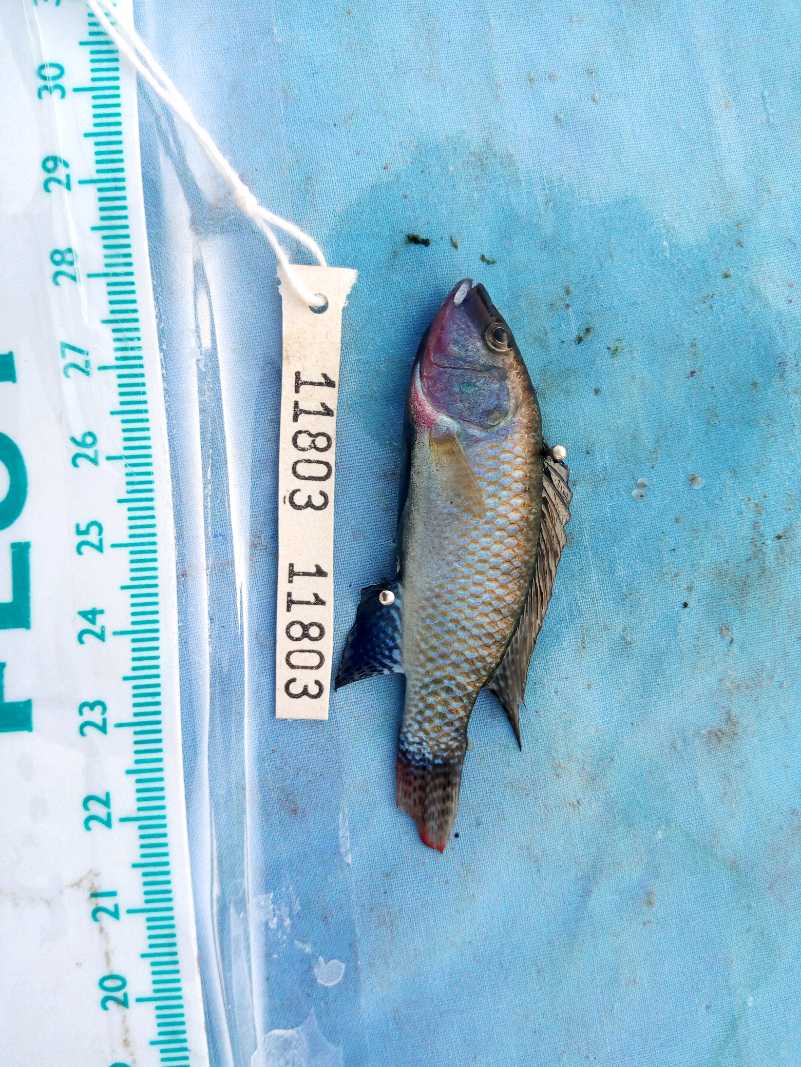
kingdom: Animalia
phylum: Chordata
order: Perciformes
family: Cichlidae
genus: Alcolapia
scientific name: Alcolapia grahami
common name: Lake magadi tilapia
